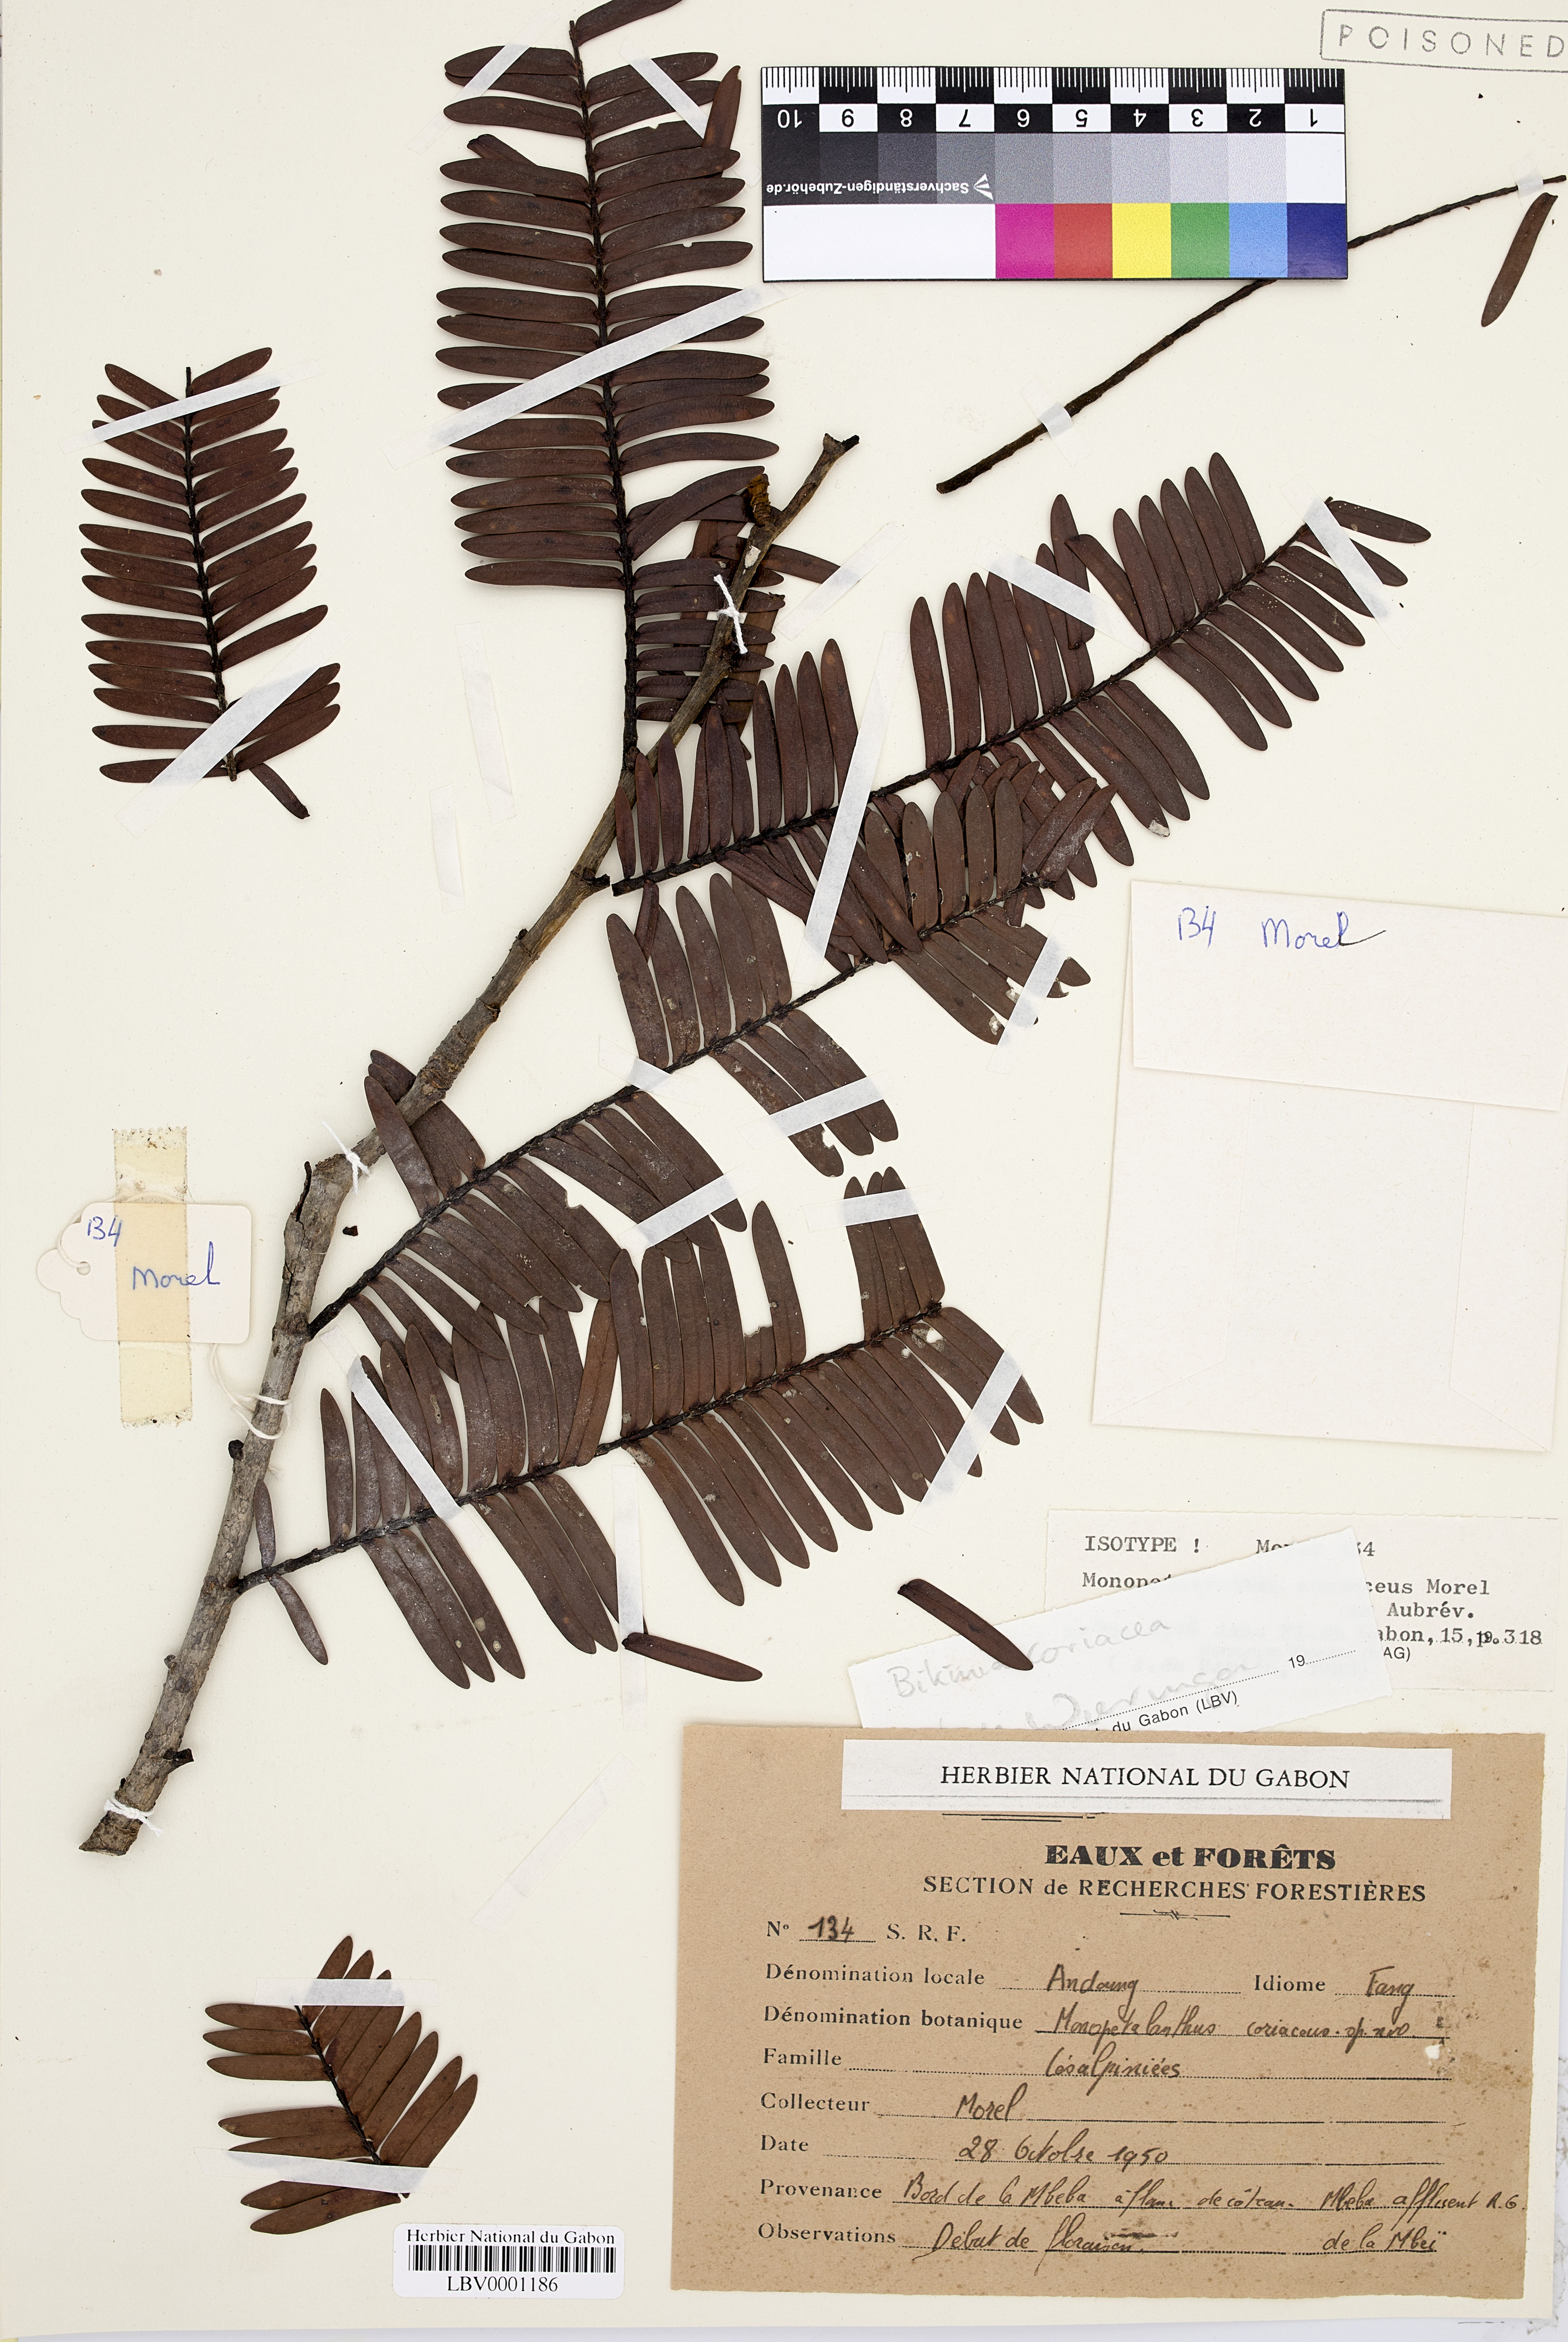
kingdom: Plantae
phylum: Tracheophyta
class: Magnoliopsida
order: Fabales
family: Fabaceae
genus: Bikinia
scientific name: Bikinia coriacea
